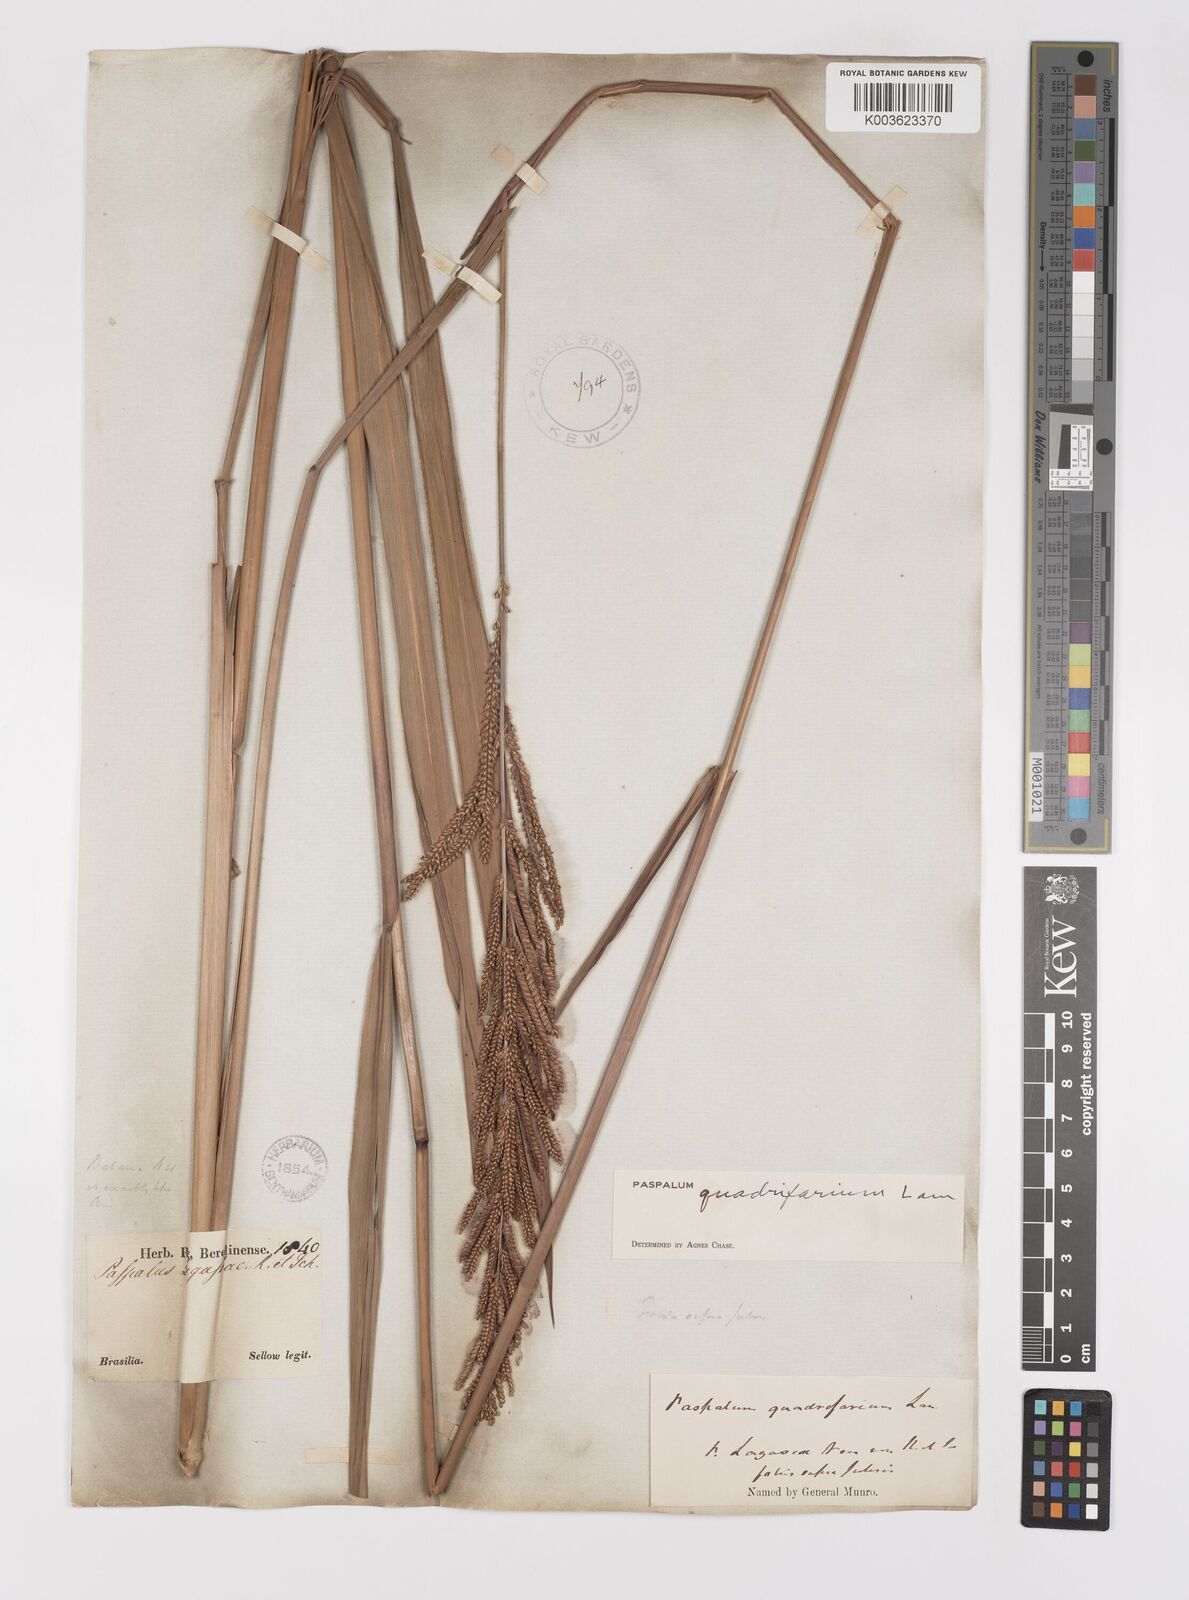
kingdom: Plantae
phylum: Tracheophyta
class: Liliopsida
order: Poales
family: Poaceae
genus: Paspalum
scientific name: Paspalum quadrifarium
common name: Tussock paspalum
